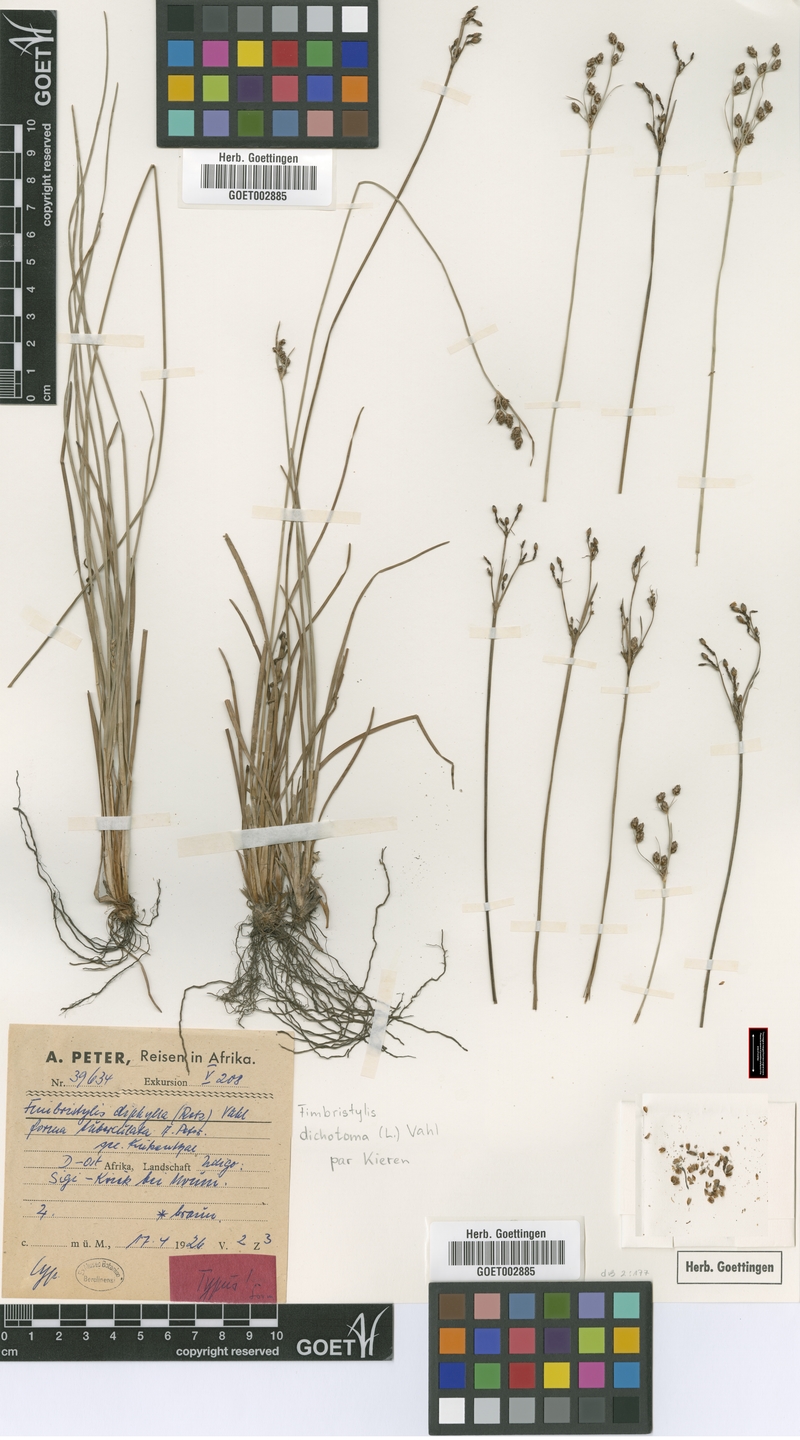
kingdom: Plantae
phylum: Tracheophyta
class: Liliopsida
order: Poales
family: Cyperaceae
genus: Fimbristylis
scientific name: Fimbristylis dichotoma
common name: Forked fimbry
